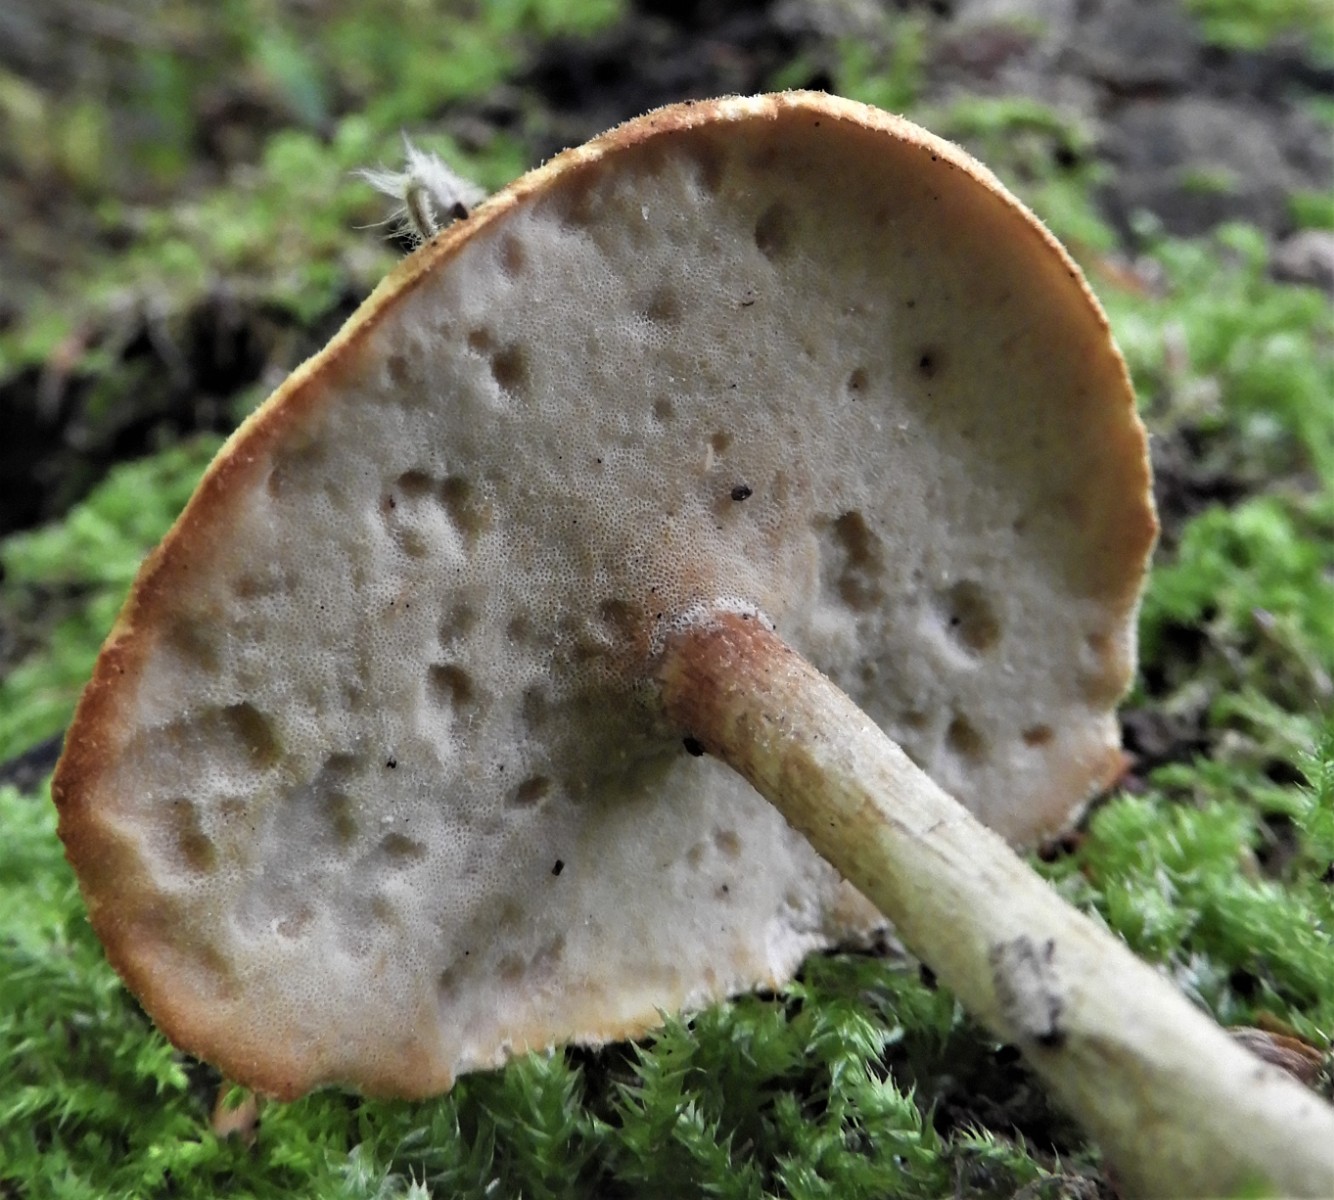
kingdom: Fungi
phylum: Basidiomycota
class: Agaricomycetes
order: Polyporales
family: Polyporaceae
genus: Cerioporus
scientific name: Cerioporus varius
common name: foranderlig stilkporesvamp
